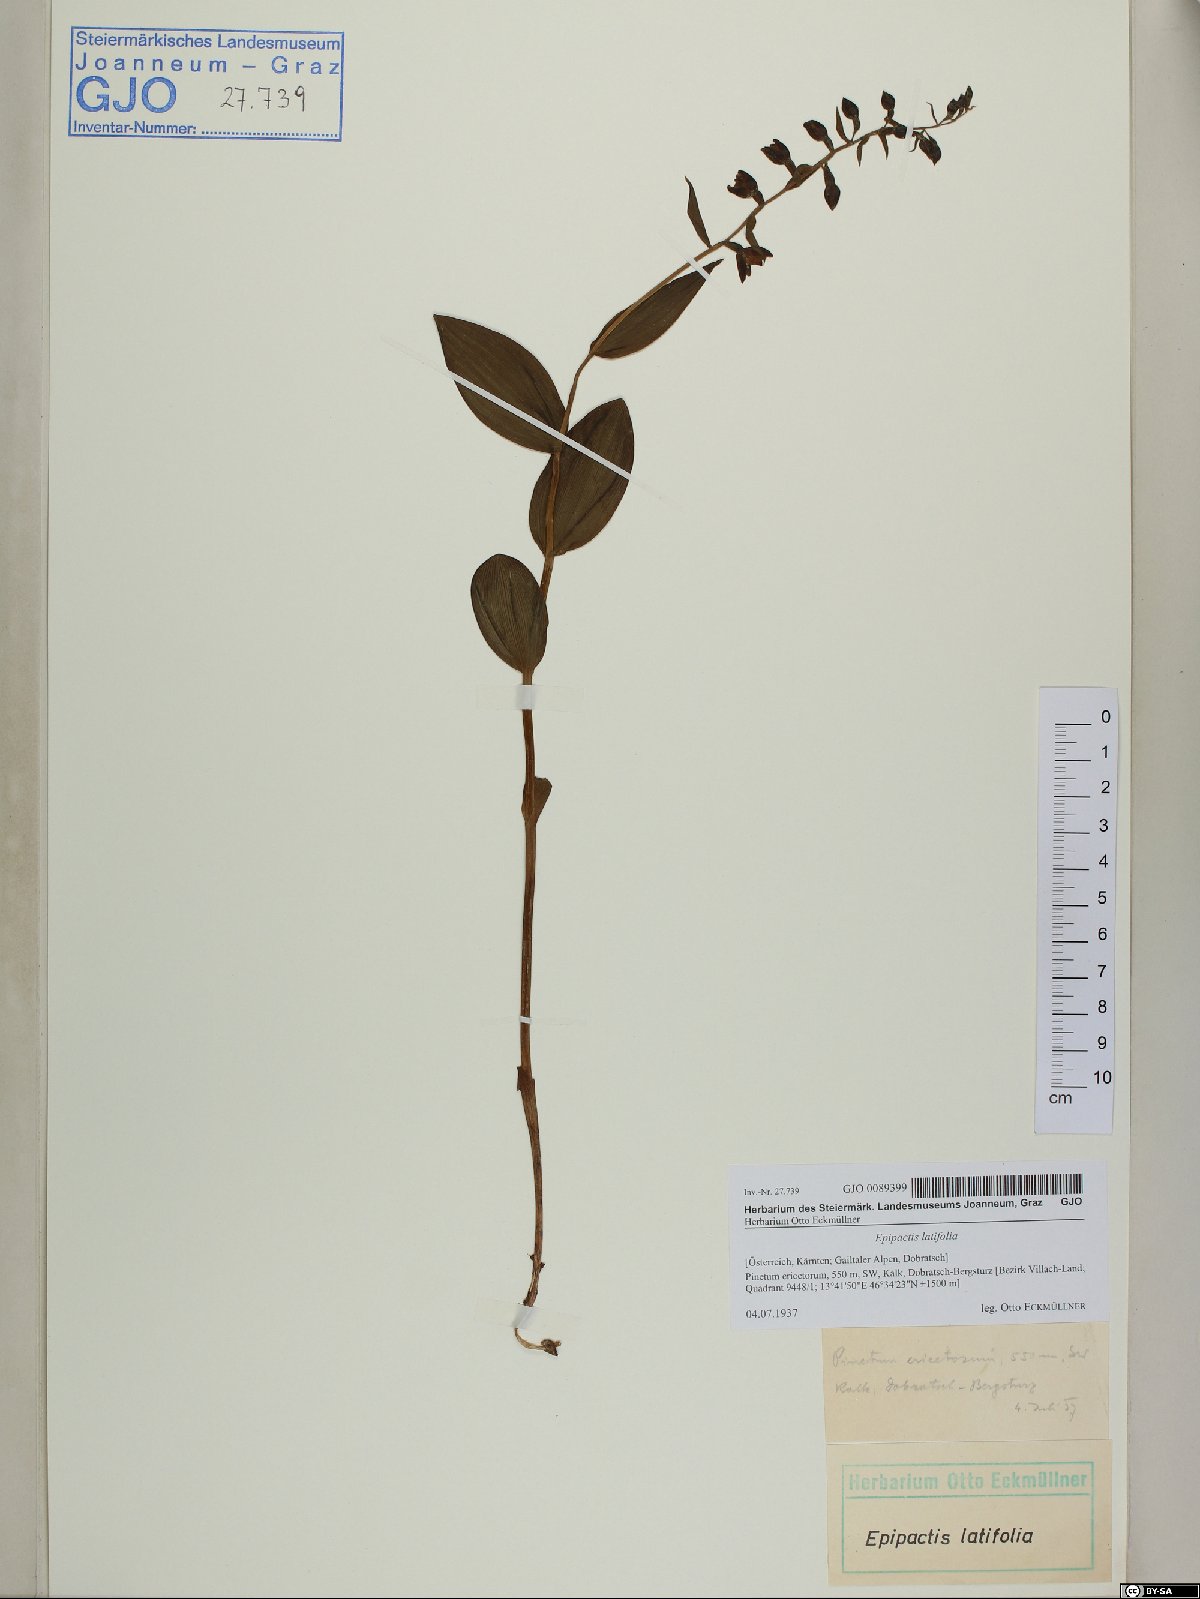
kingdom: Plantae
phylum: Tracheophyta
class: Liliopsida
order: Asparagales
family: Orchidaceae
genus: Epipactis
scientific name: Epipactis helleborine
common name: Broad-leaved helleborine
